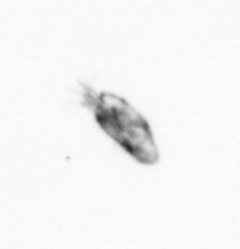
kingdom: Animalia
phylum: Arthropoda
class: Copepoda
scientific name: Copepoda
